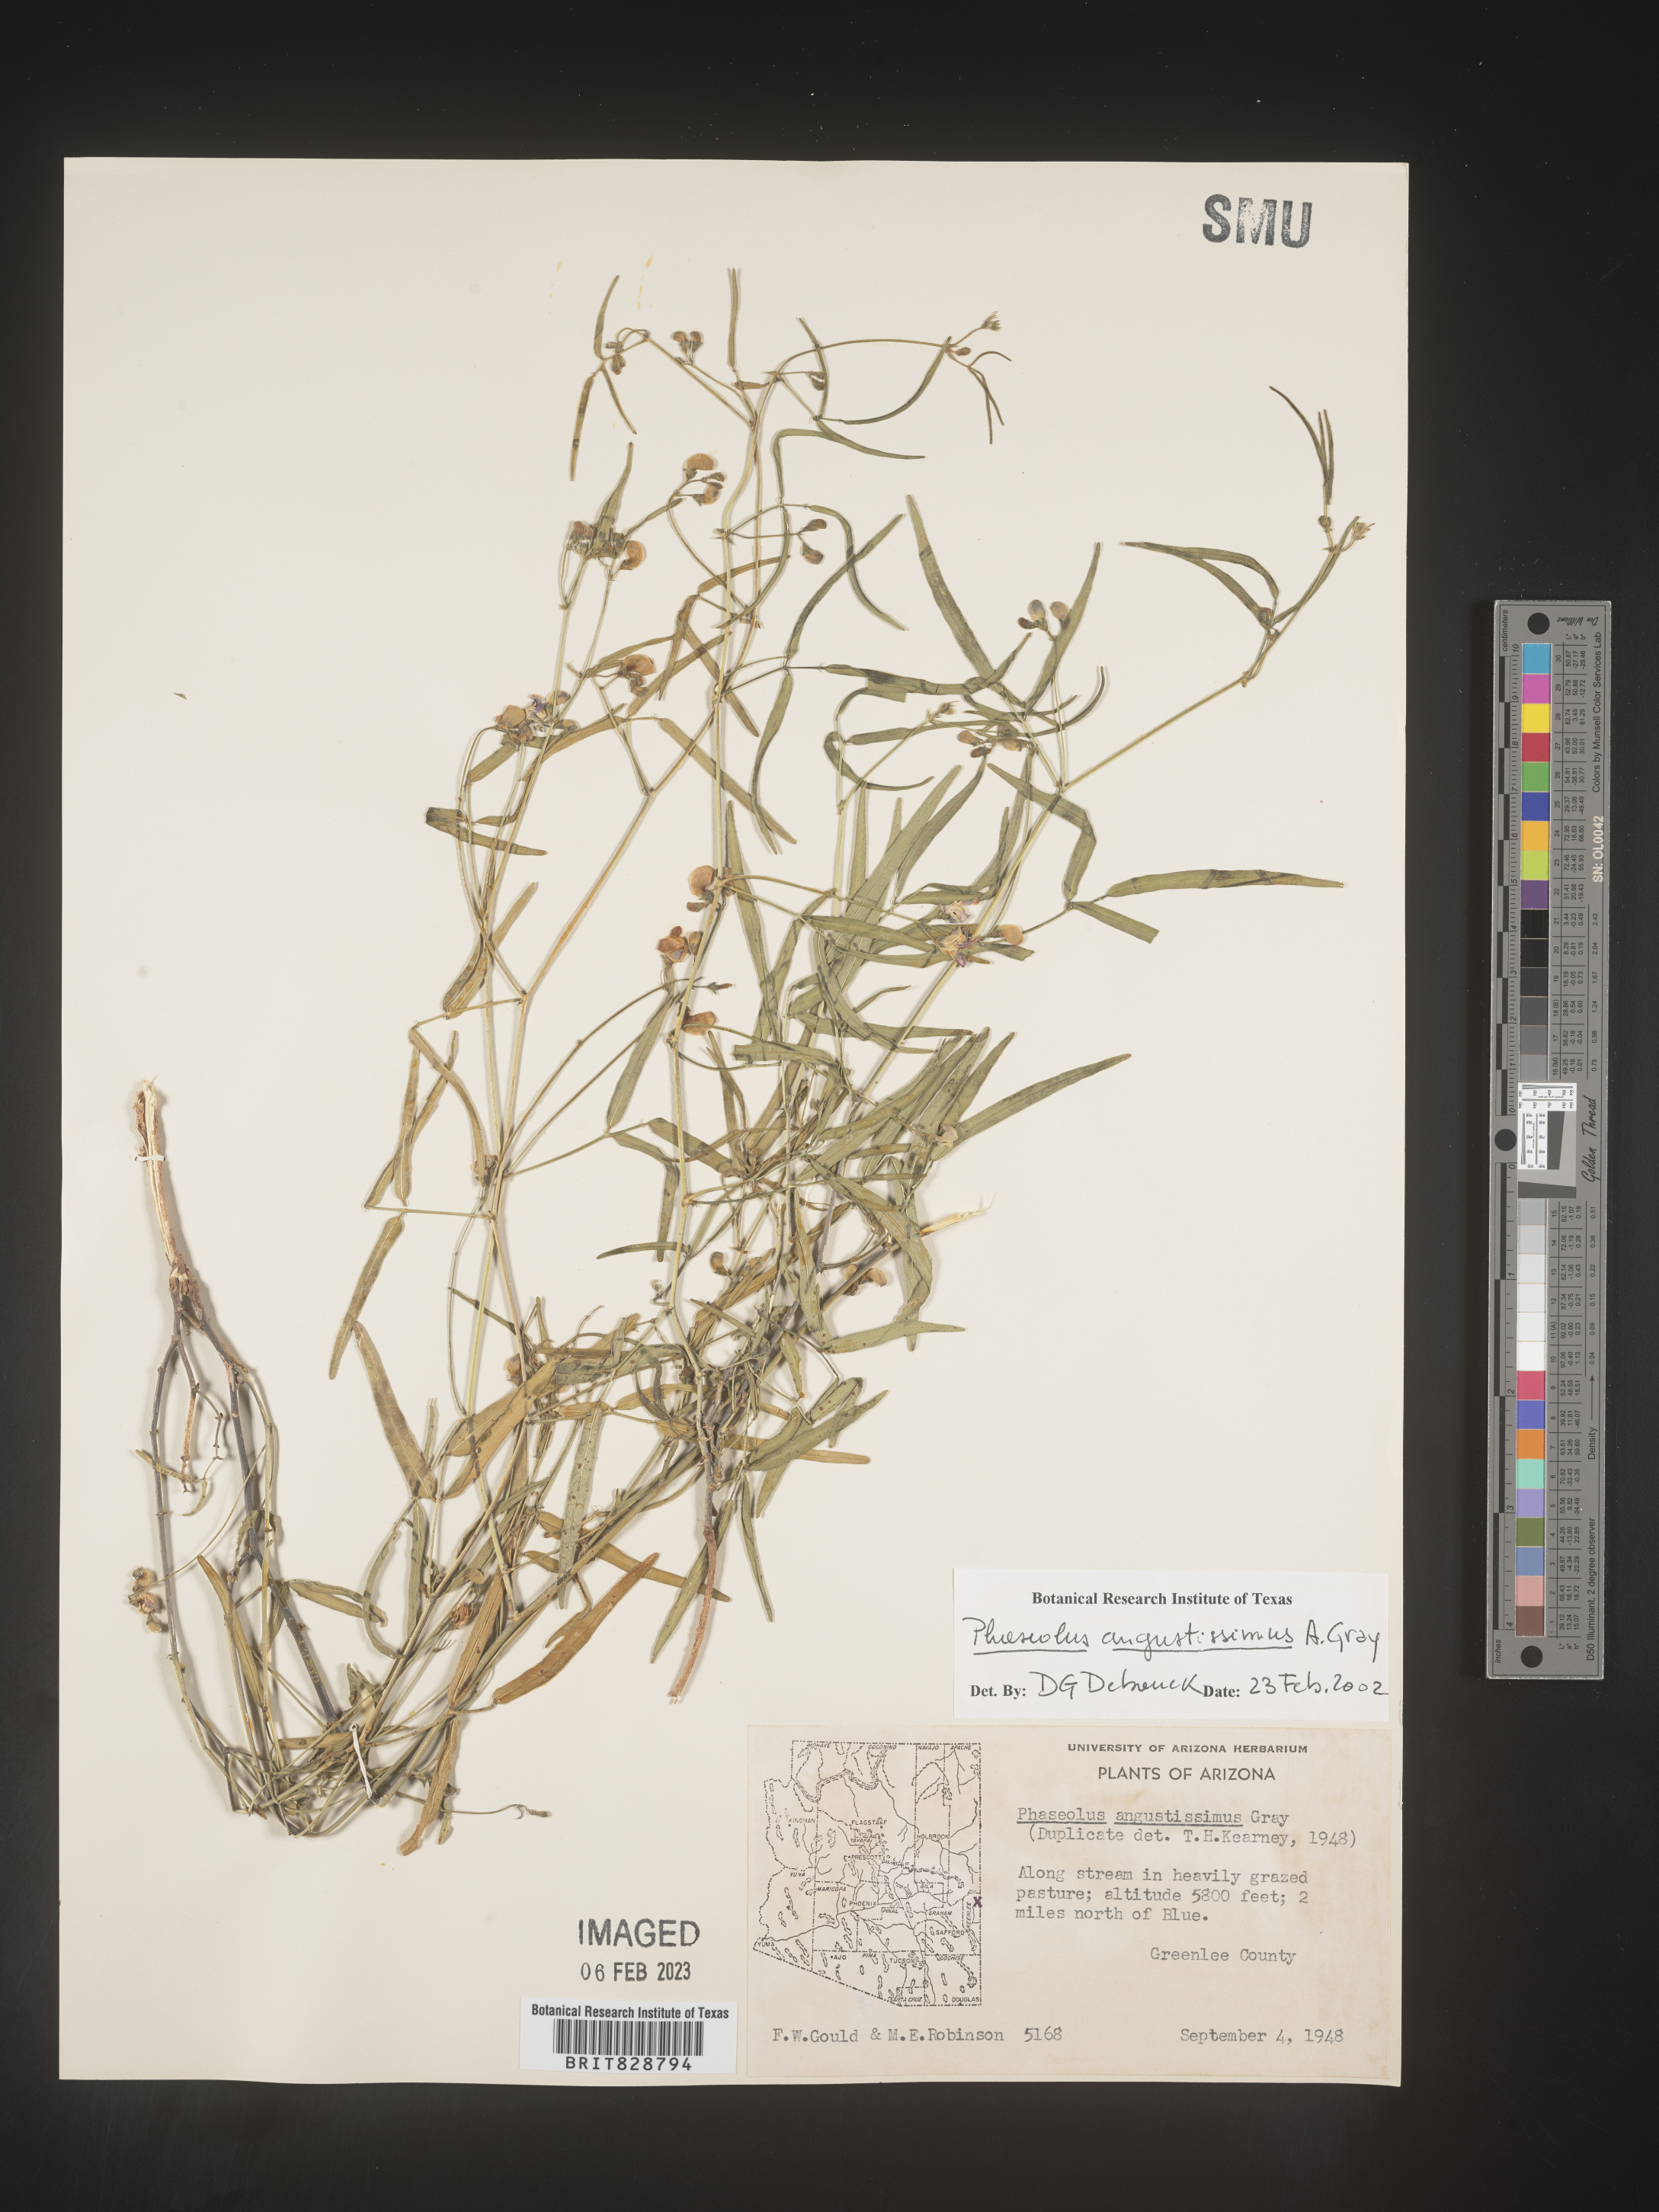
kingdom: Plantae
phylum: Tracheophyta
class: Magnoliopsida
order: Fabales
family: Fabaceae
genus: Phaseolus
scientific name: Phaseolus
